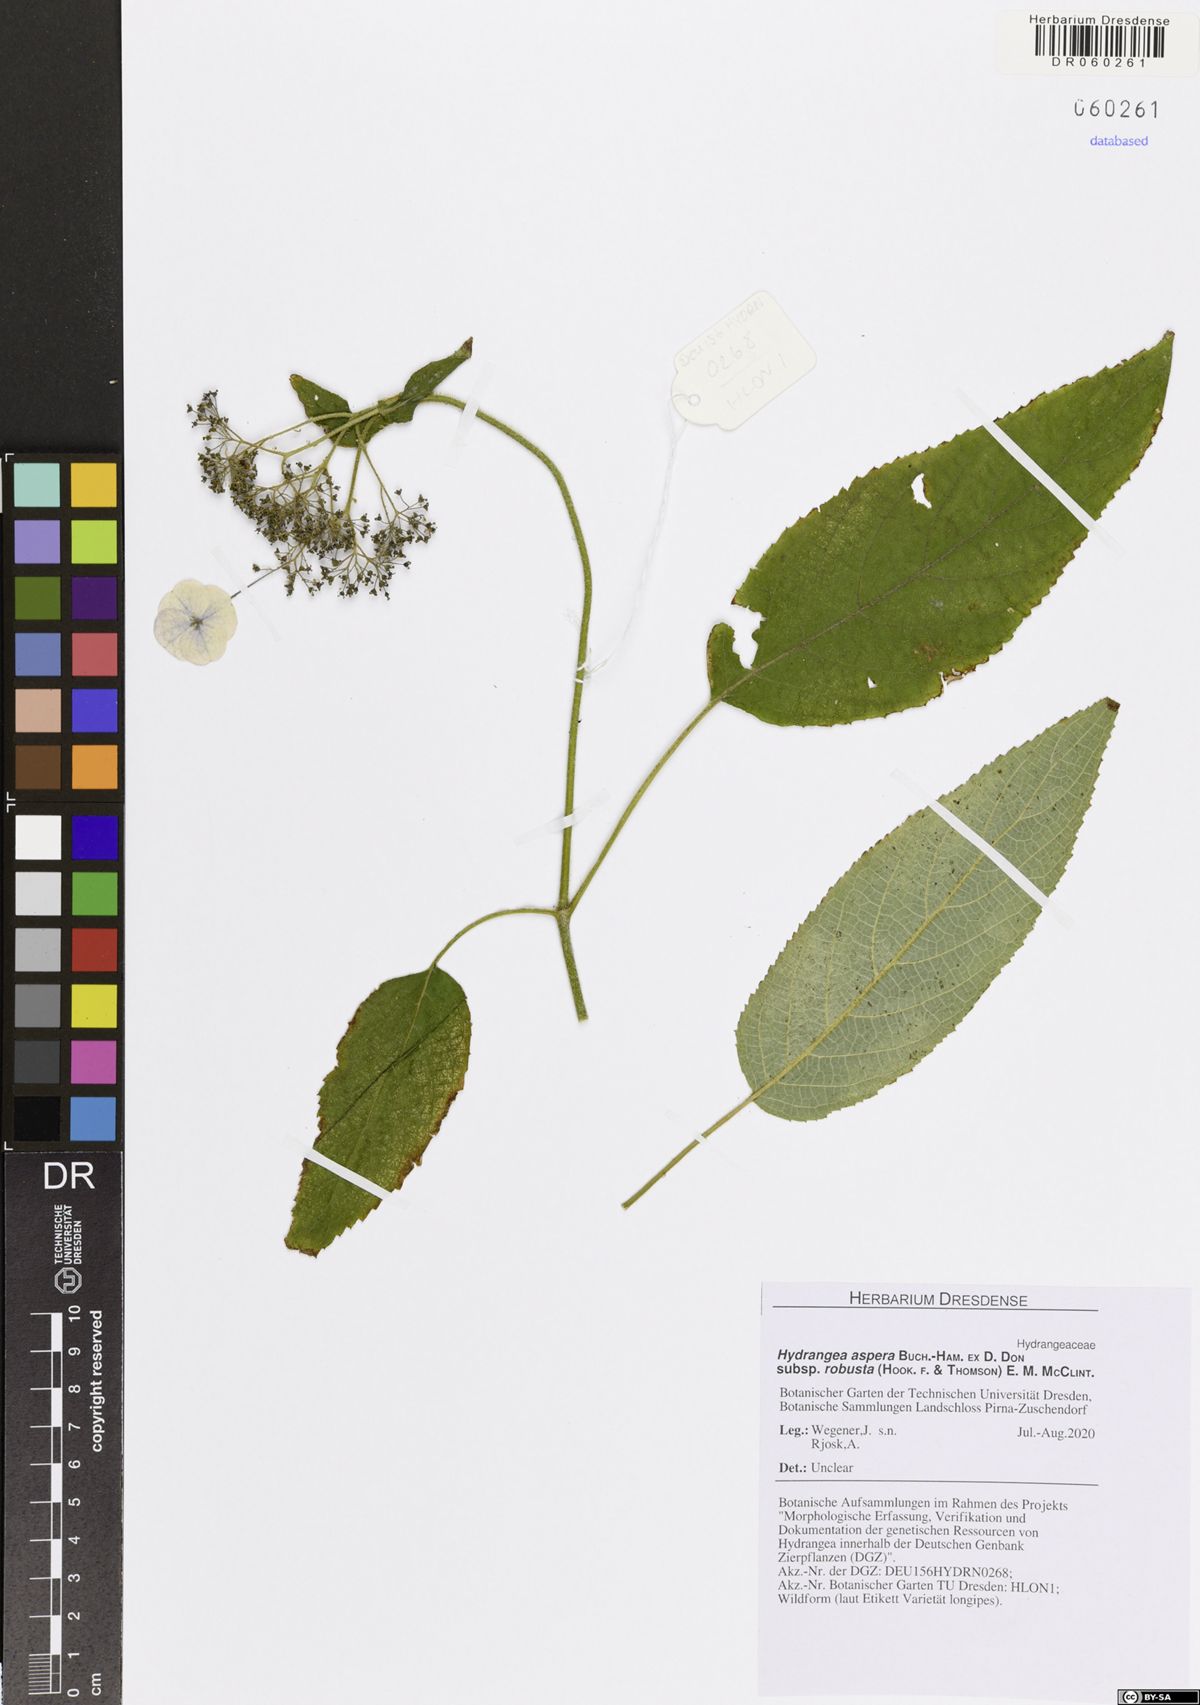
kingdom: Plantae
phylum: Tracheophyta
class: Magnoliopsida
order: Cornales
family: Hydrangeaceae
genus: Hydrangea
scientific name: Hydrangea aspera
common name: Rough-leaf hydrangea
